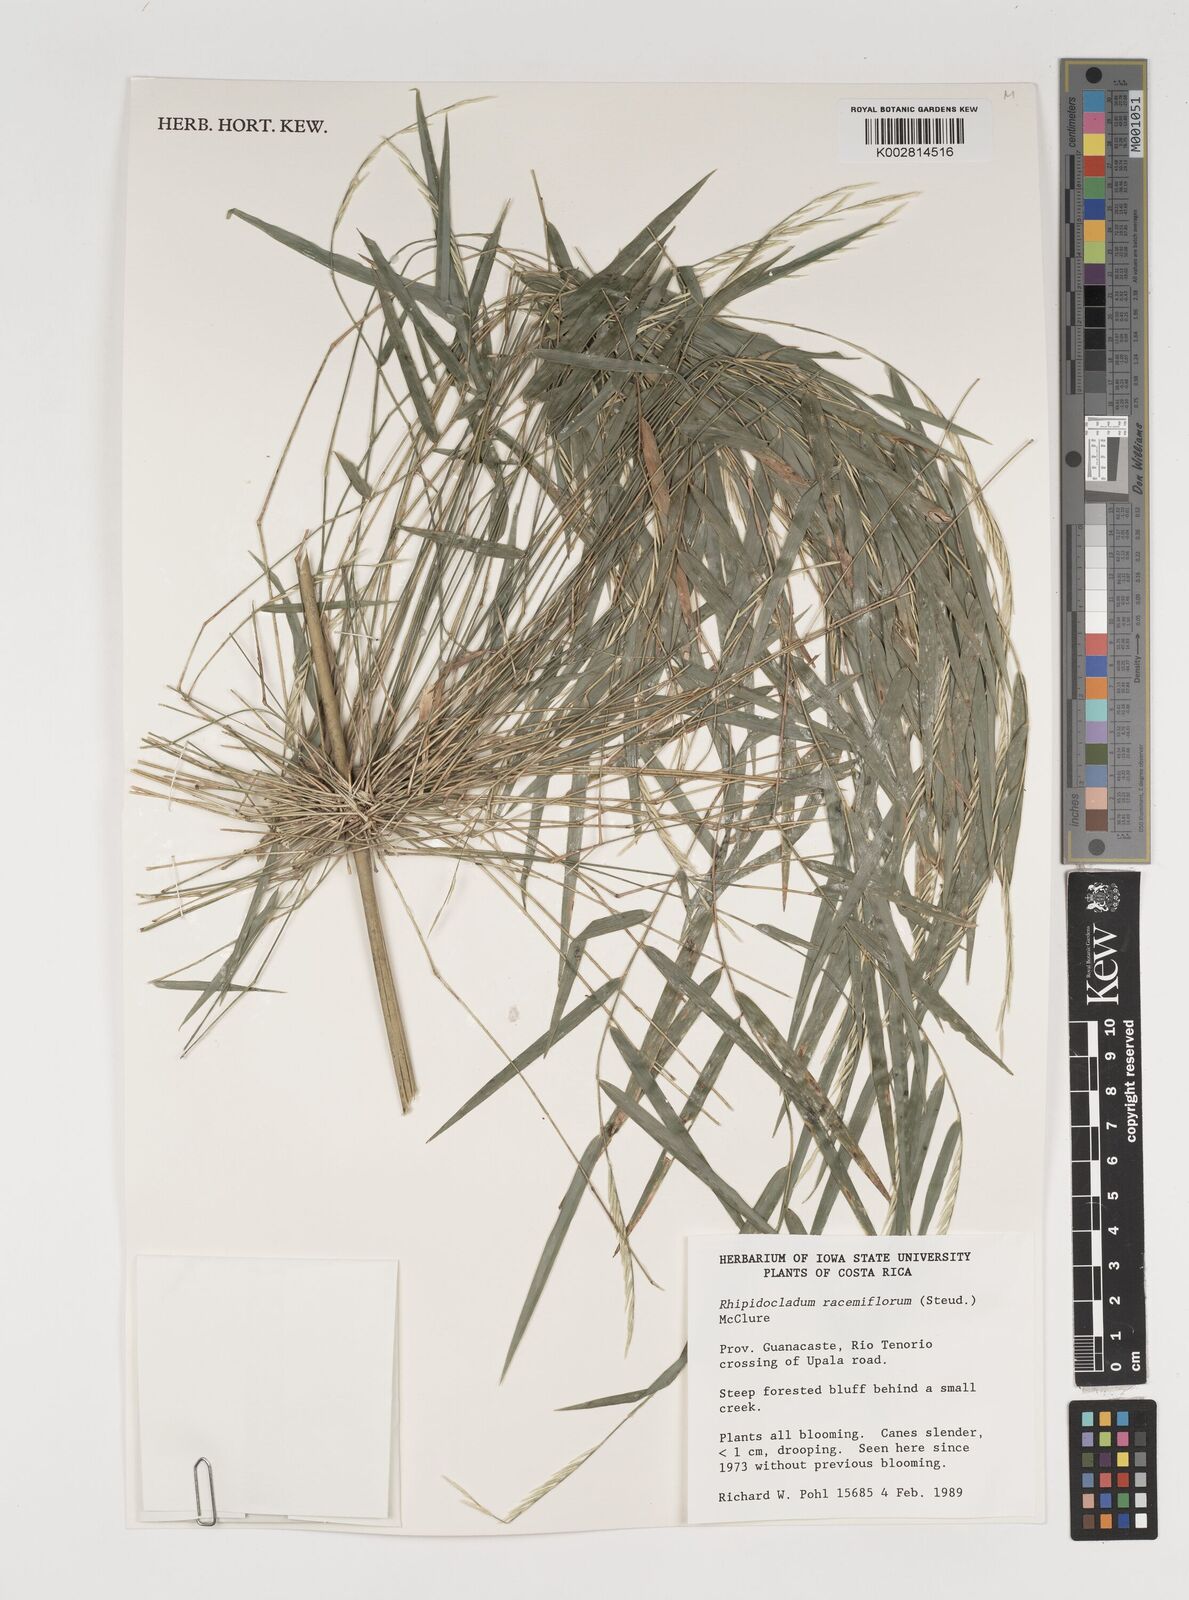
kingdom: Plantae
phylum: Tracheophyta
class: Liliopsida
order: Poales
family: Poaceae
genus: Rhipidocladum
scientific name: Rhipidocladum racemiflorum
